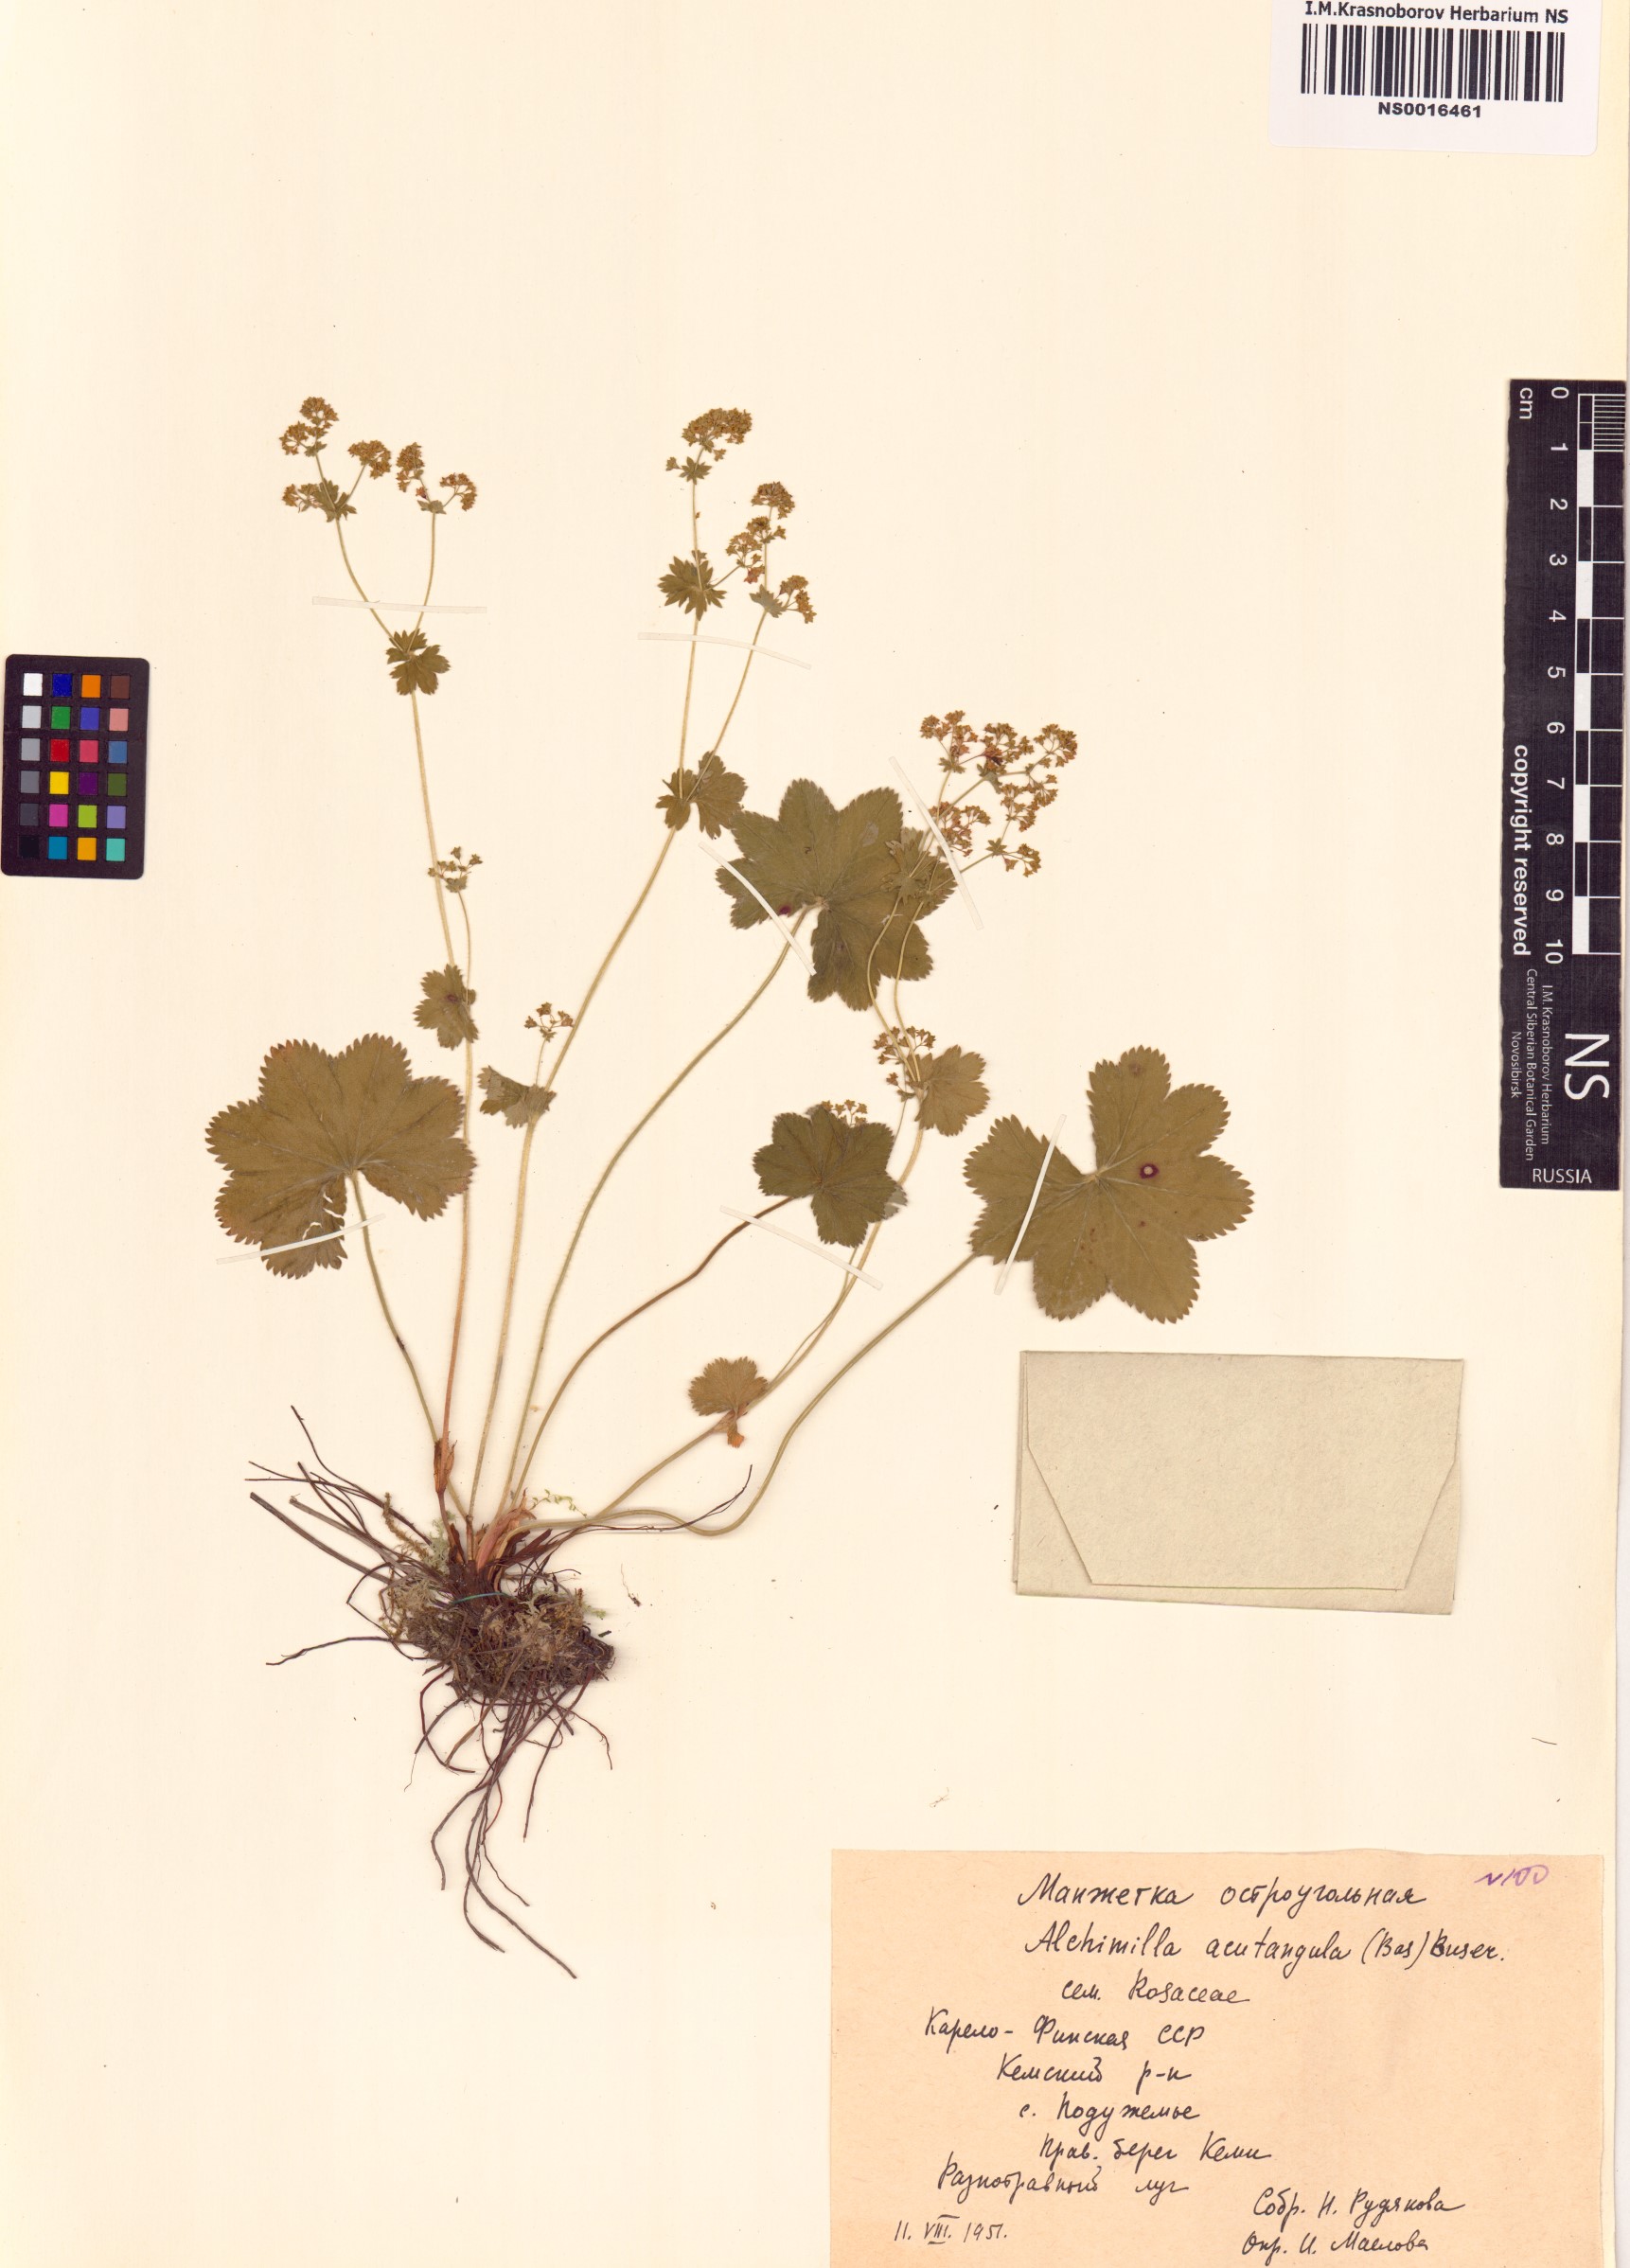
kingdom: Plantae
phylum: Tracheophyta
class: Magnoliopsida
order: Rosales
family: Rosaceae
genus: Alchemilla
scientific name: Alchemilla vulgaris
